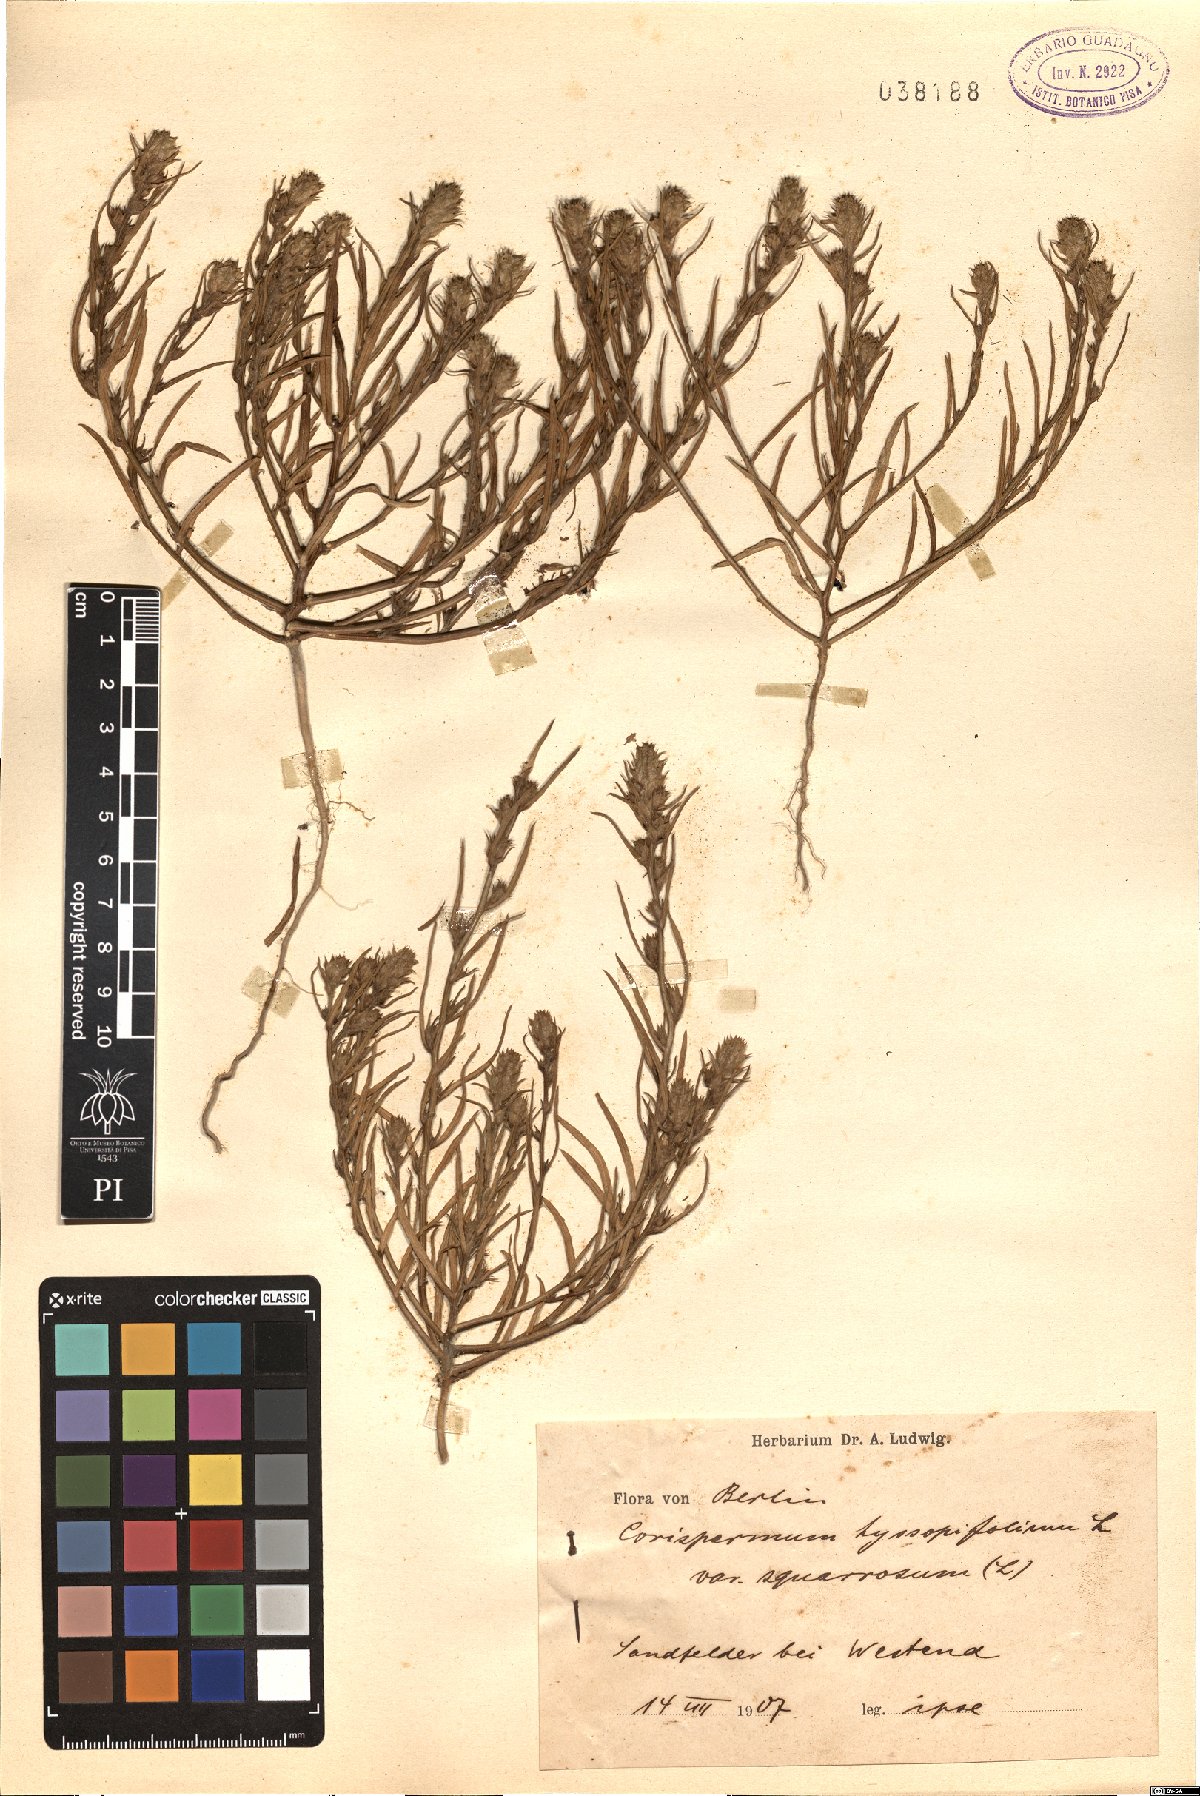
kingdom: Plantae
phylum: Tracheophyta
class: Magnoliopsida
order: Caryophyllales
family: Amaranthaceae
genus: Corispermum
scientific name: Corispermum squarrosum
